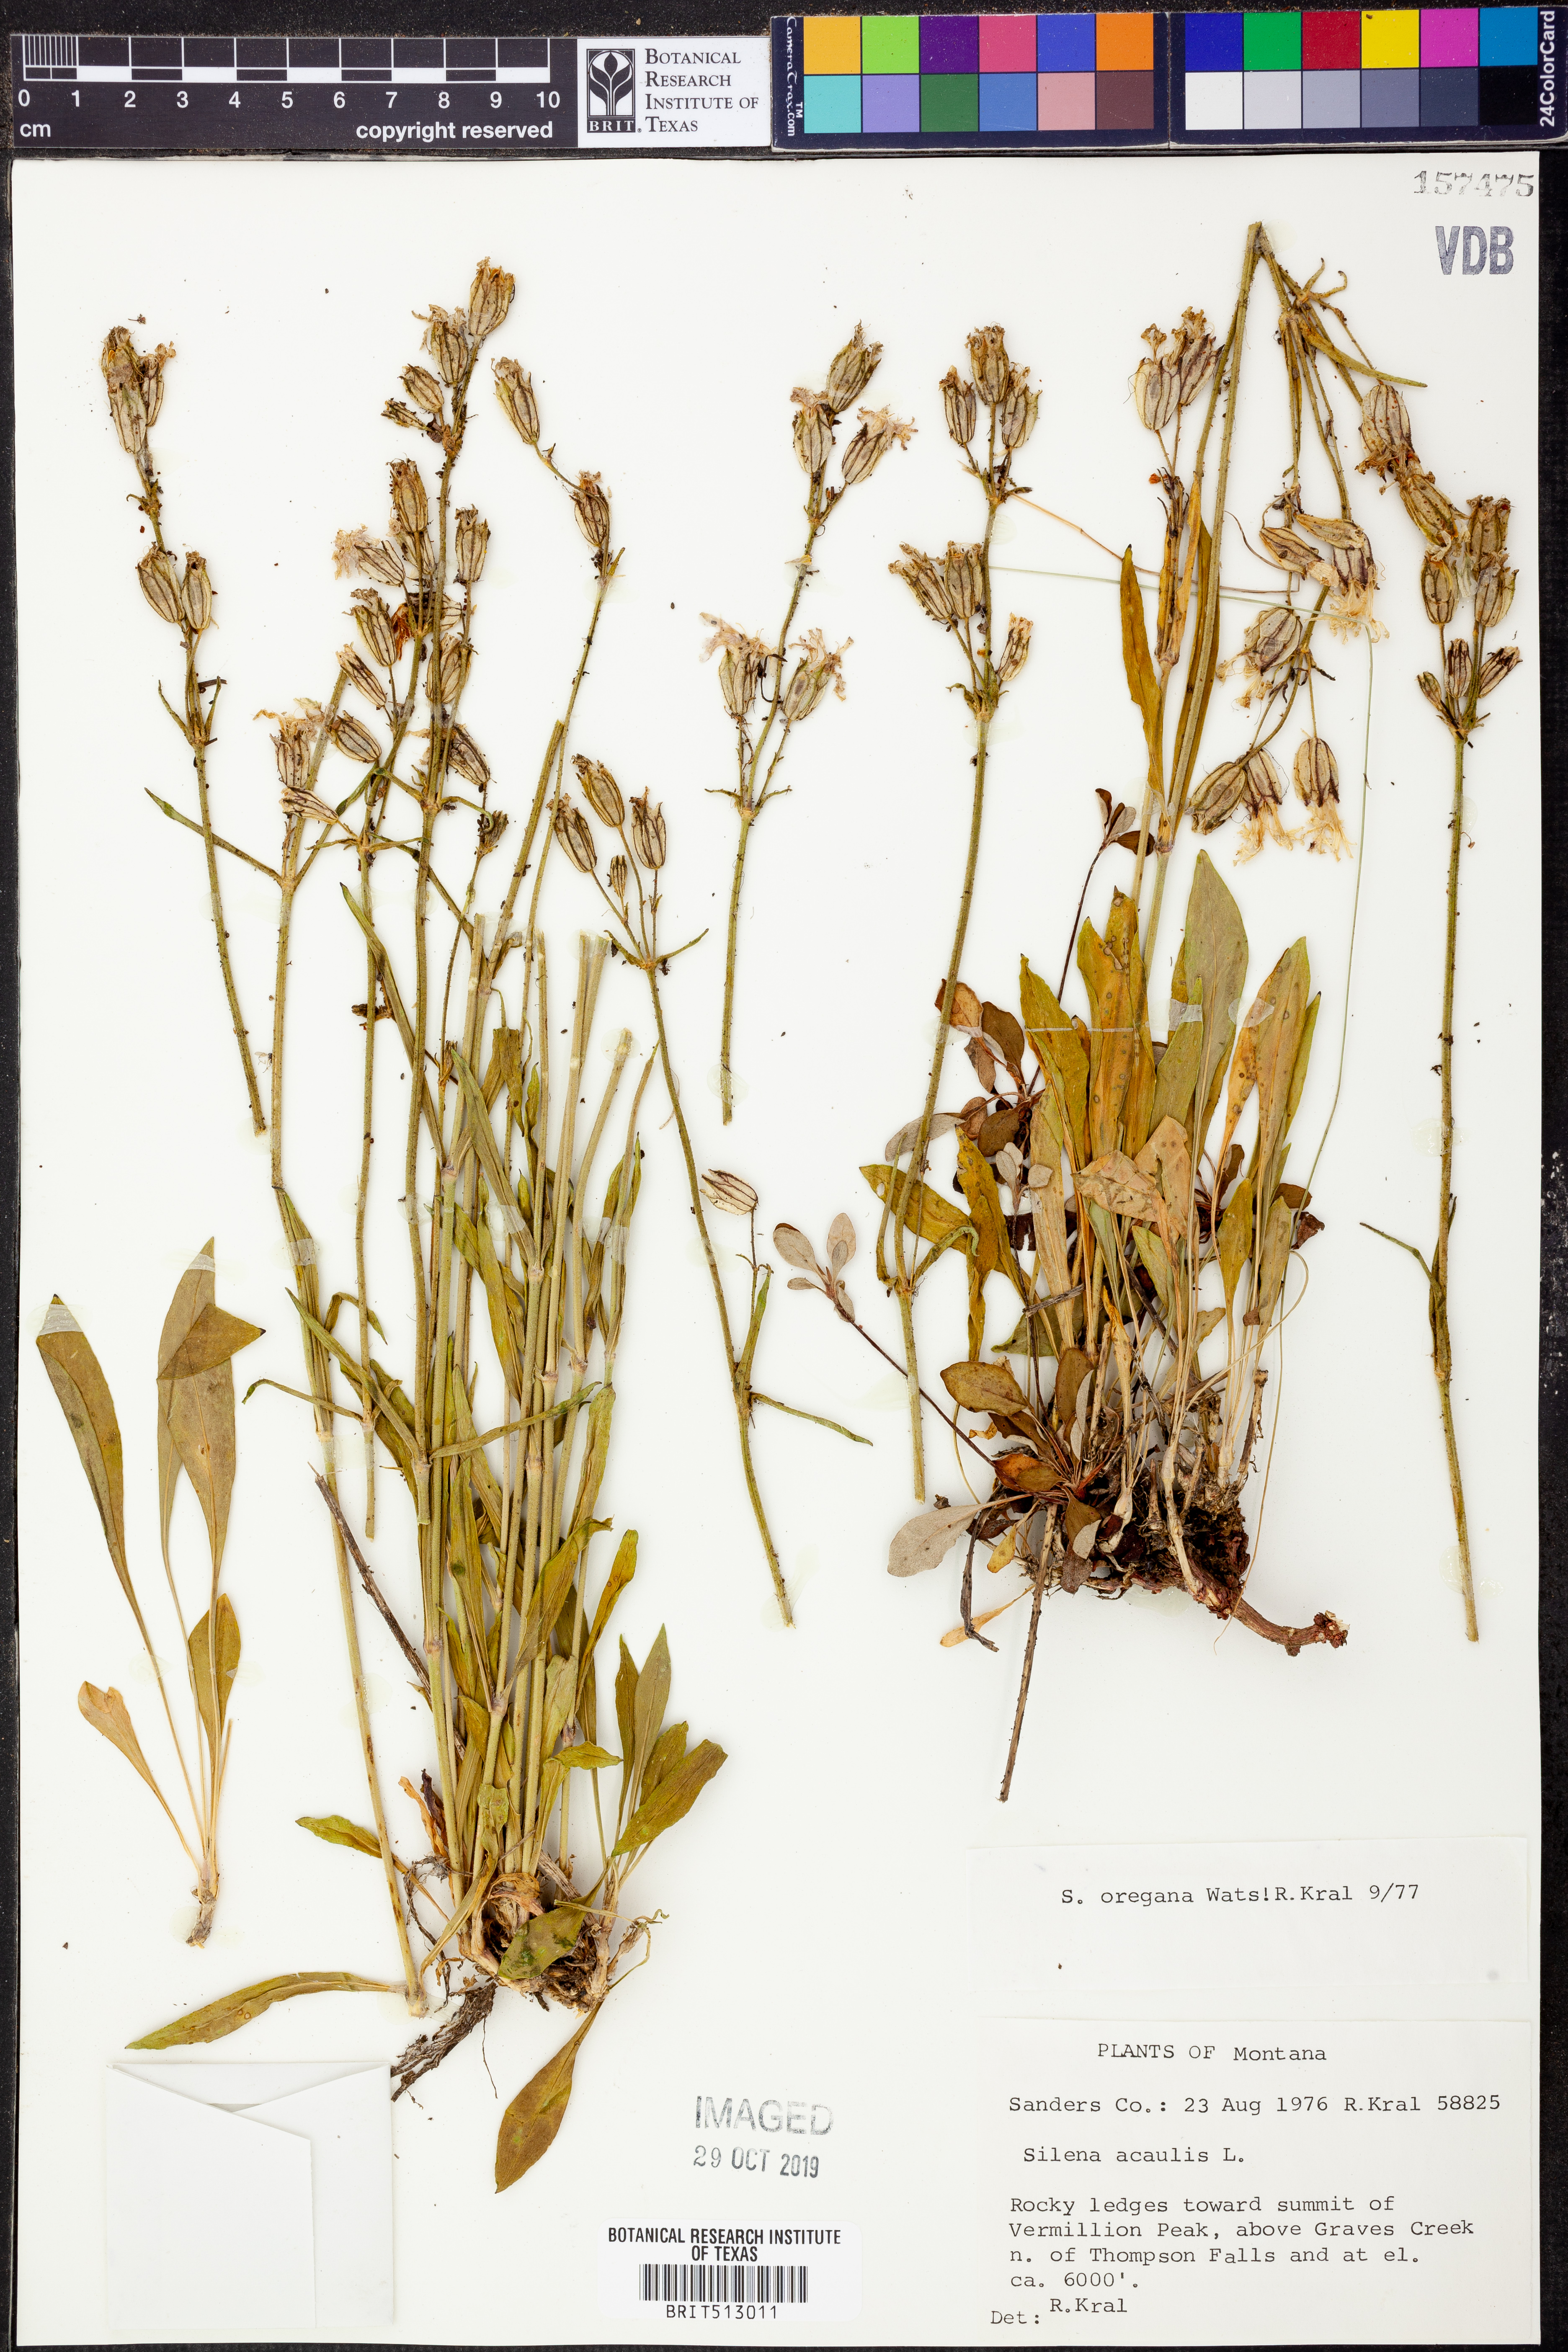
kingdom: Plantae
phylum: Tracheophyta
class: Magnoliopsida
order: Caryophyllales
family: Caryophyllaceae
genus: Silene
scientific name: Silene oregana
